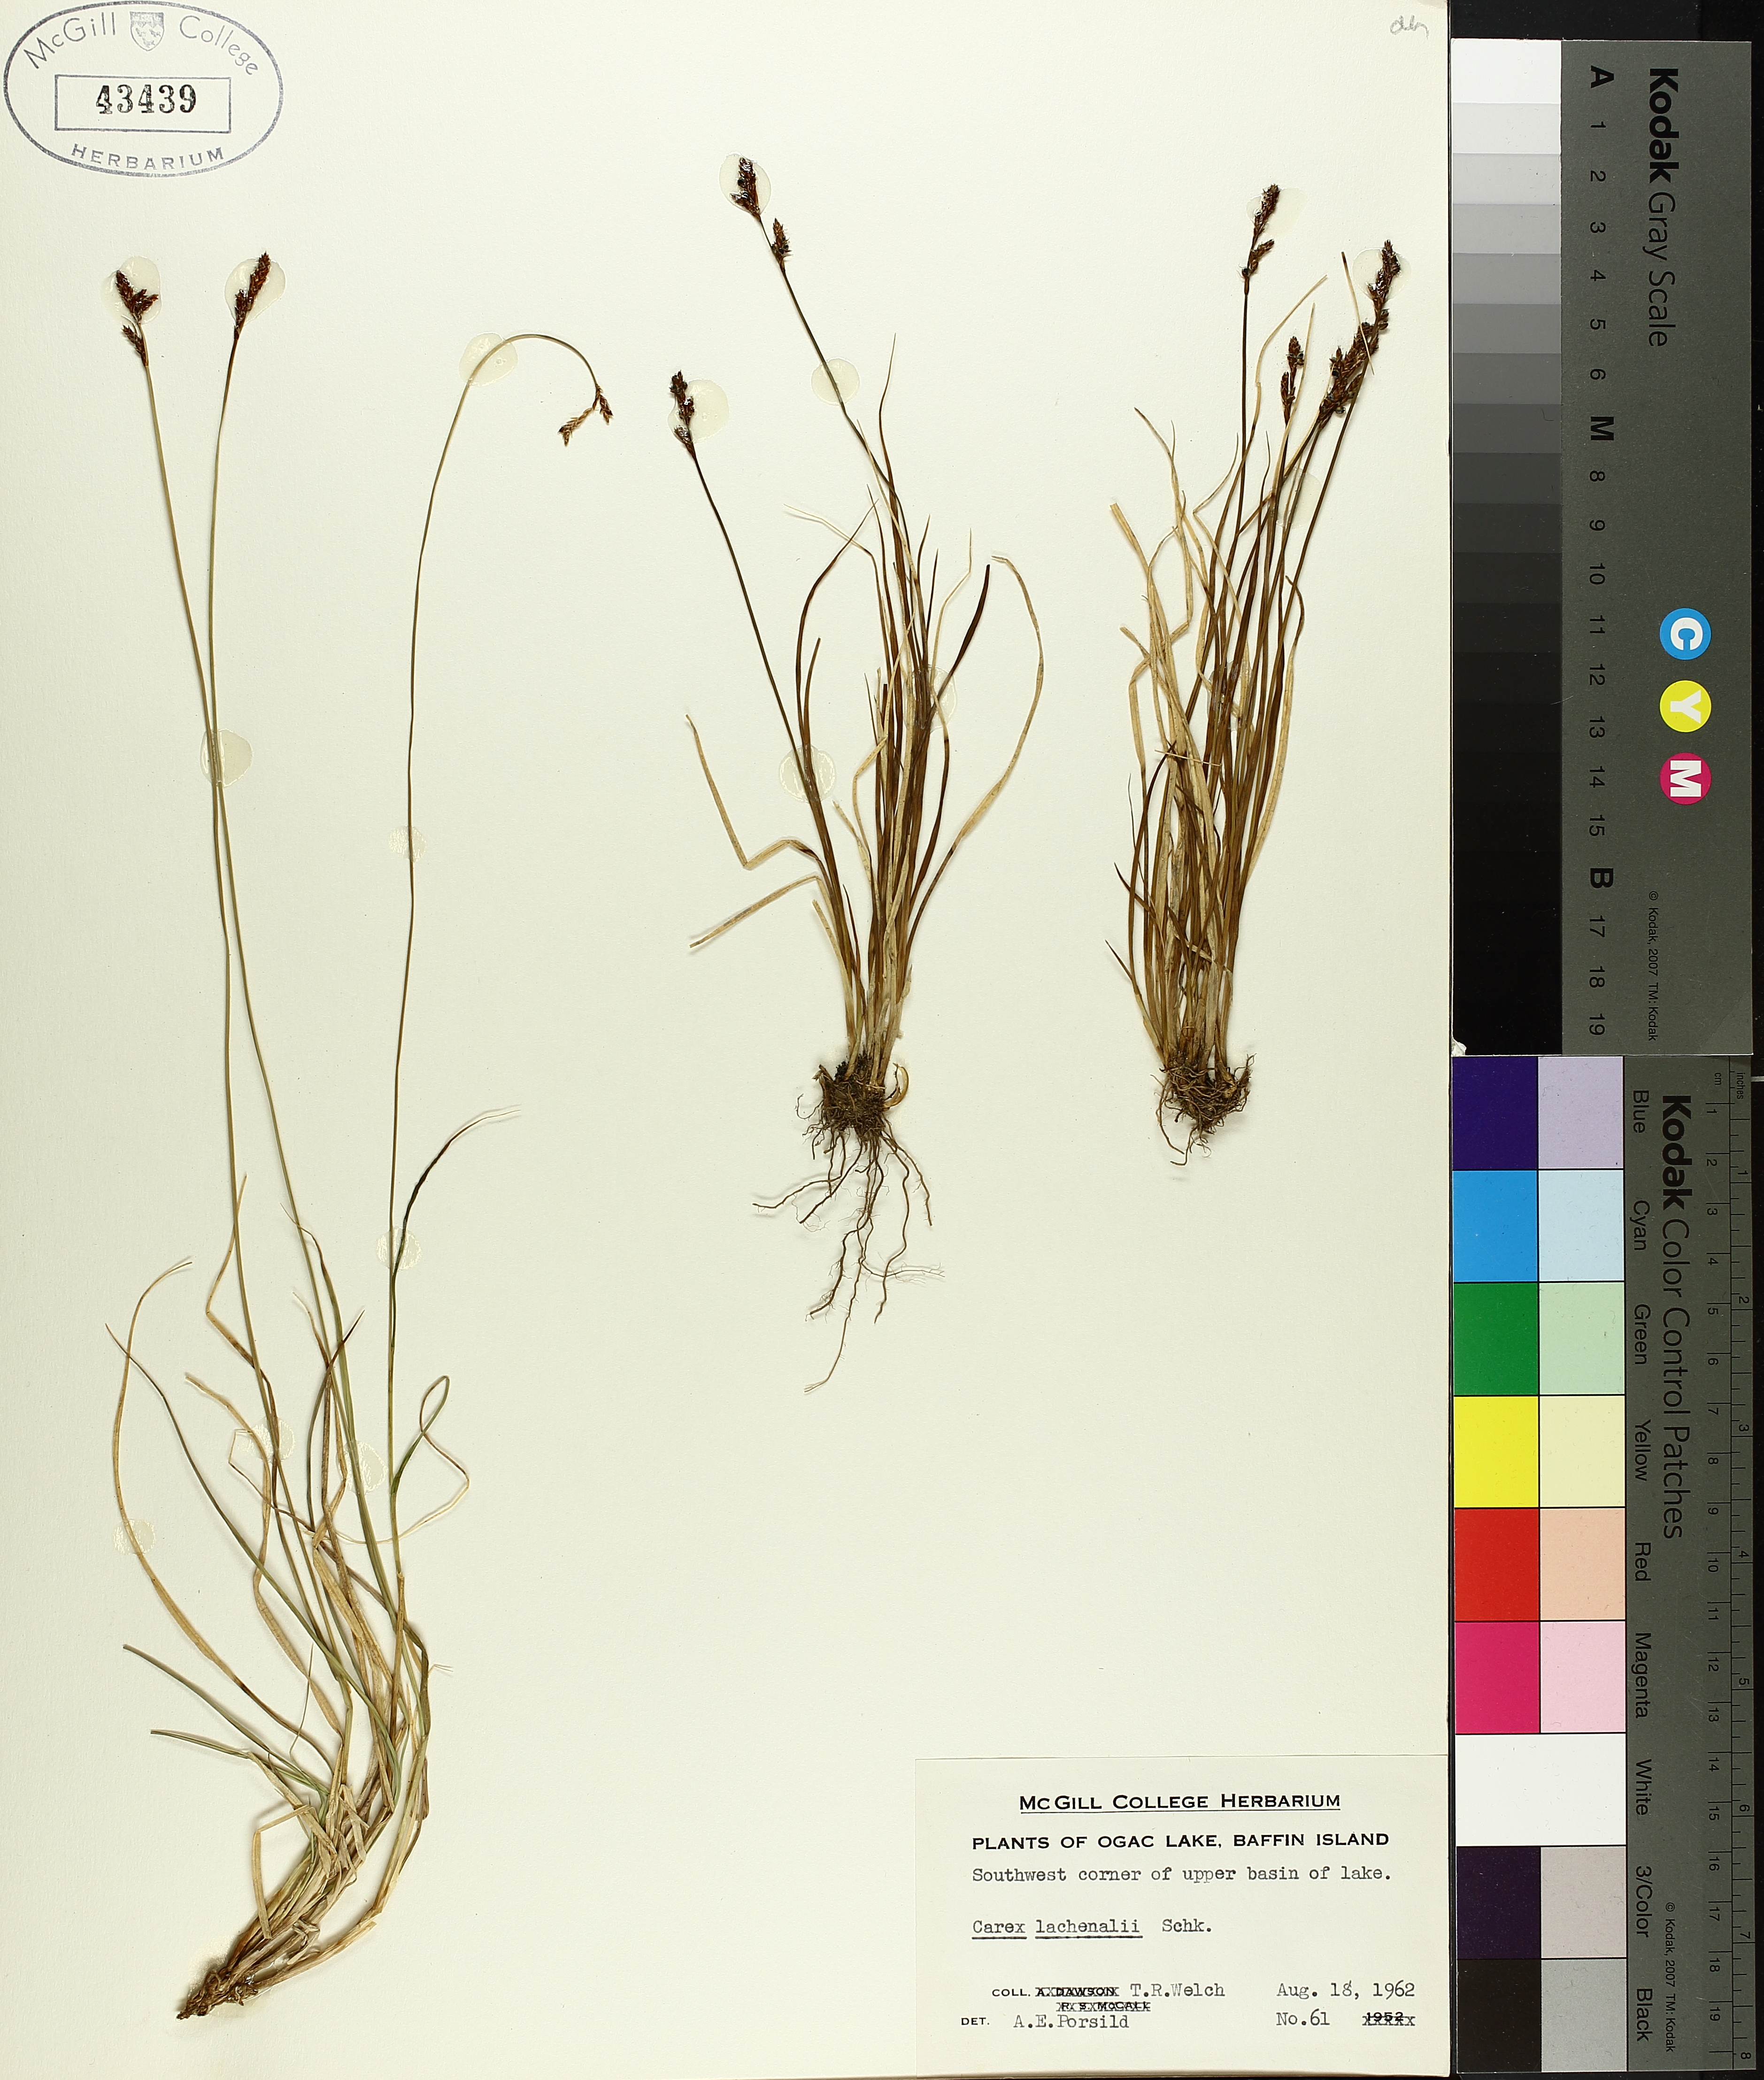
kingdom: Plantae
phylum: Tracheophyta
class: Liliopsida
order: Poales
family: Cyperaceae
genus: Carex
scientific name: Carex lachenalii
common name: Hare's-foot sedge
